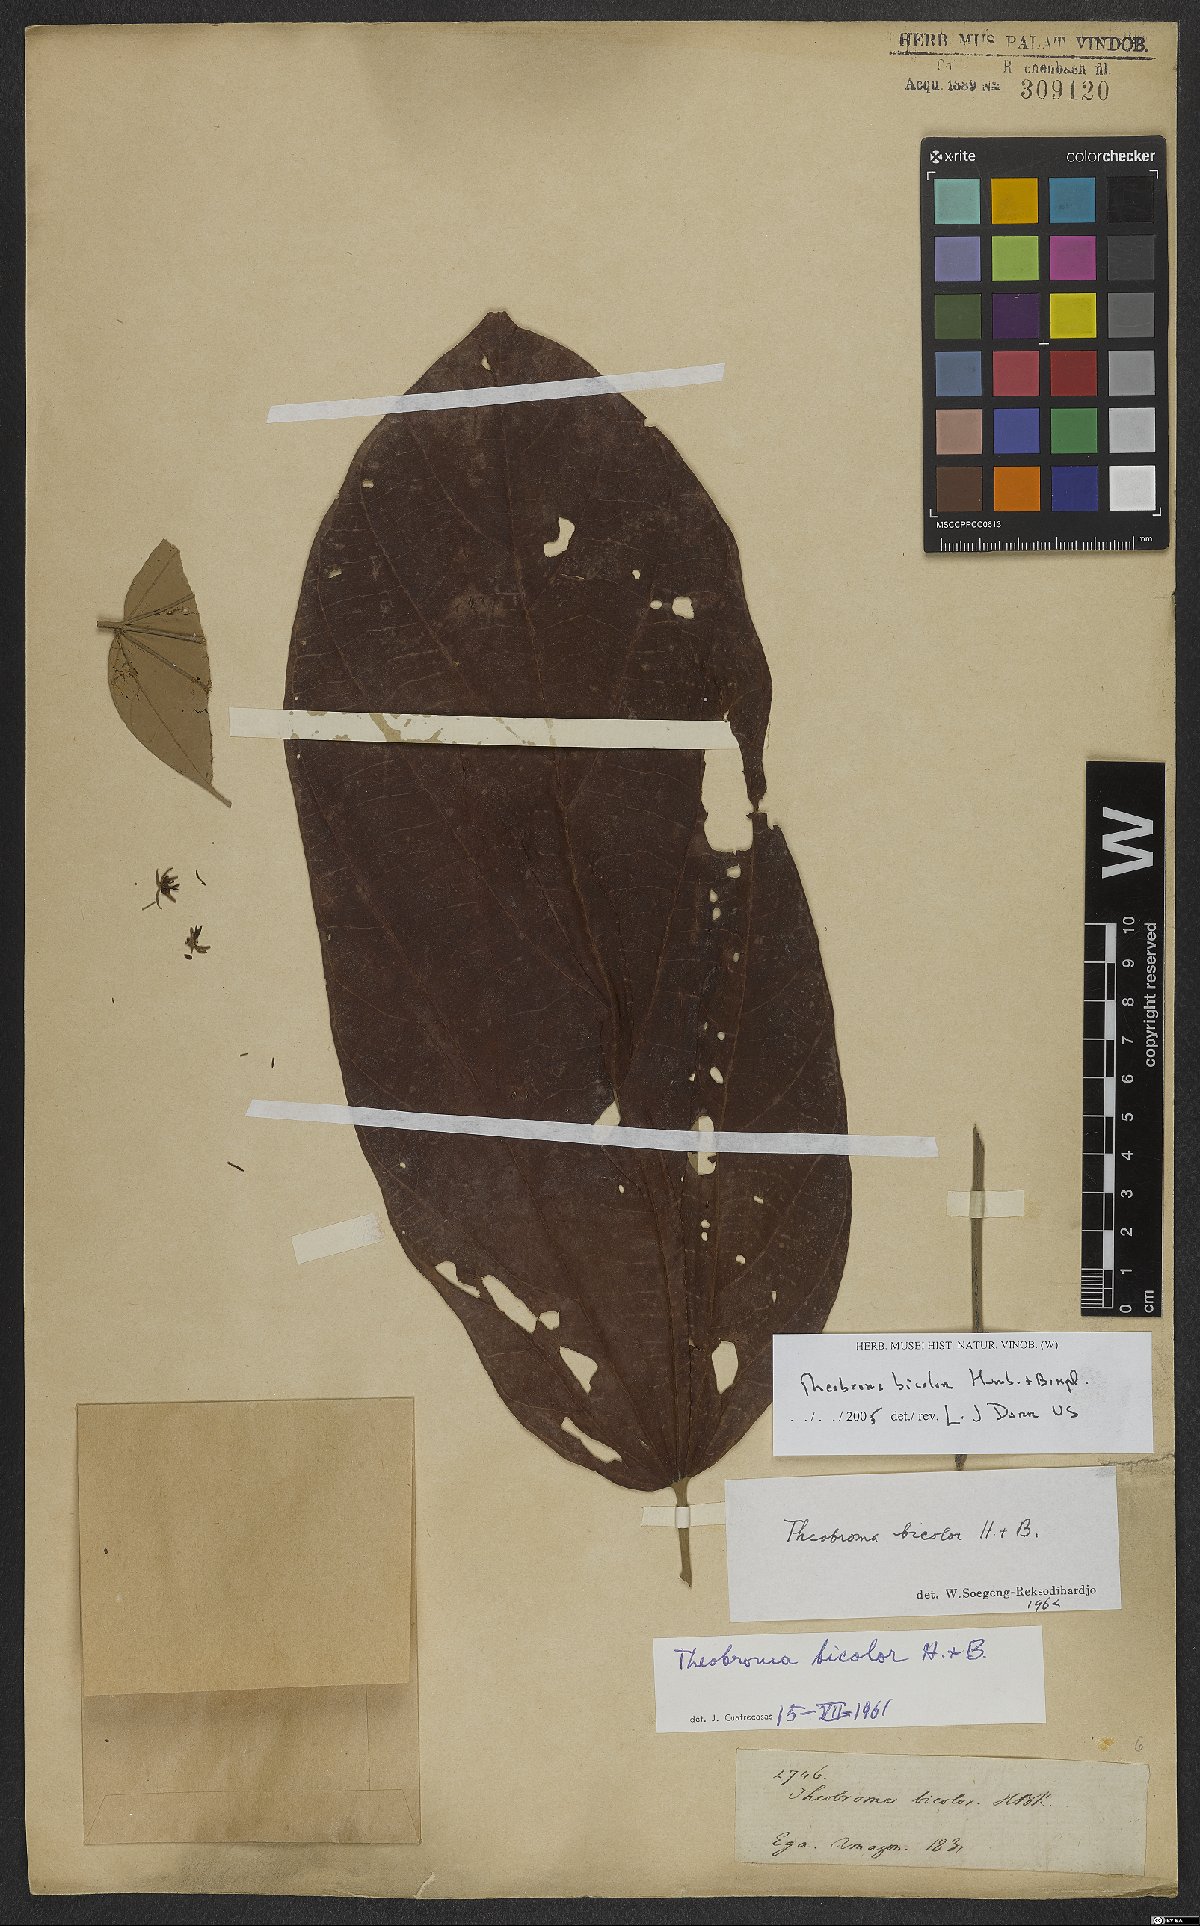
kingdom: Plantae
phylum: Tracheophyta
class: Magnoliopsida
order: Malvales
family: Malvaceae
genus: Theobroma
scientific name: Theobroma bicolor
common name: Macambo tree
